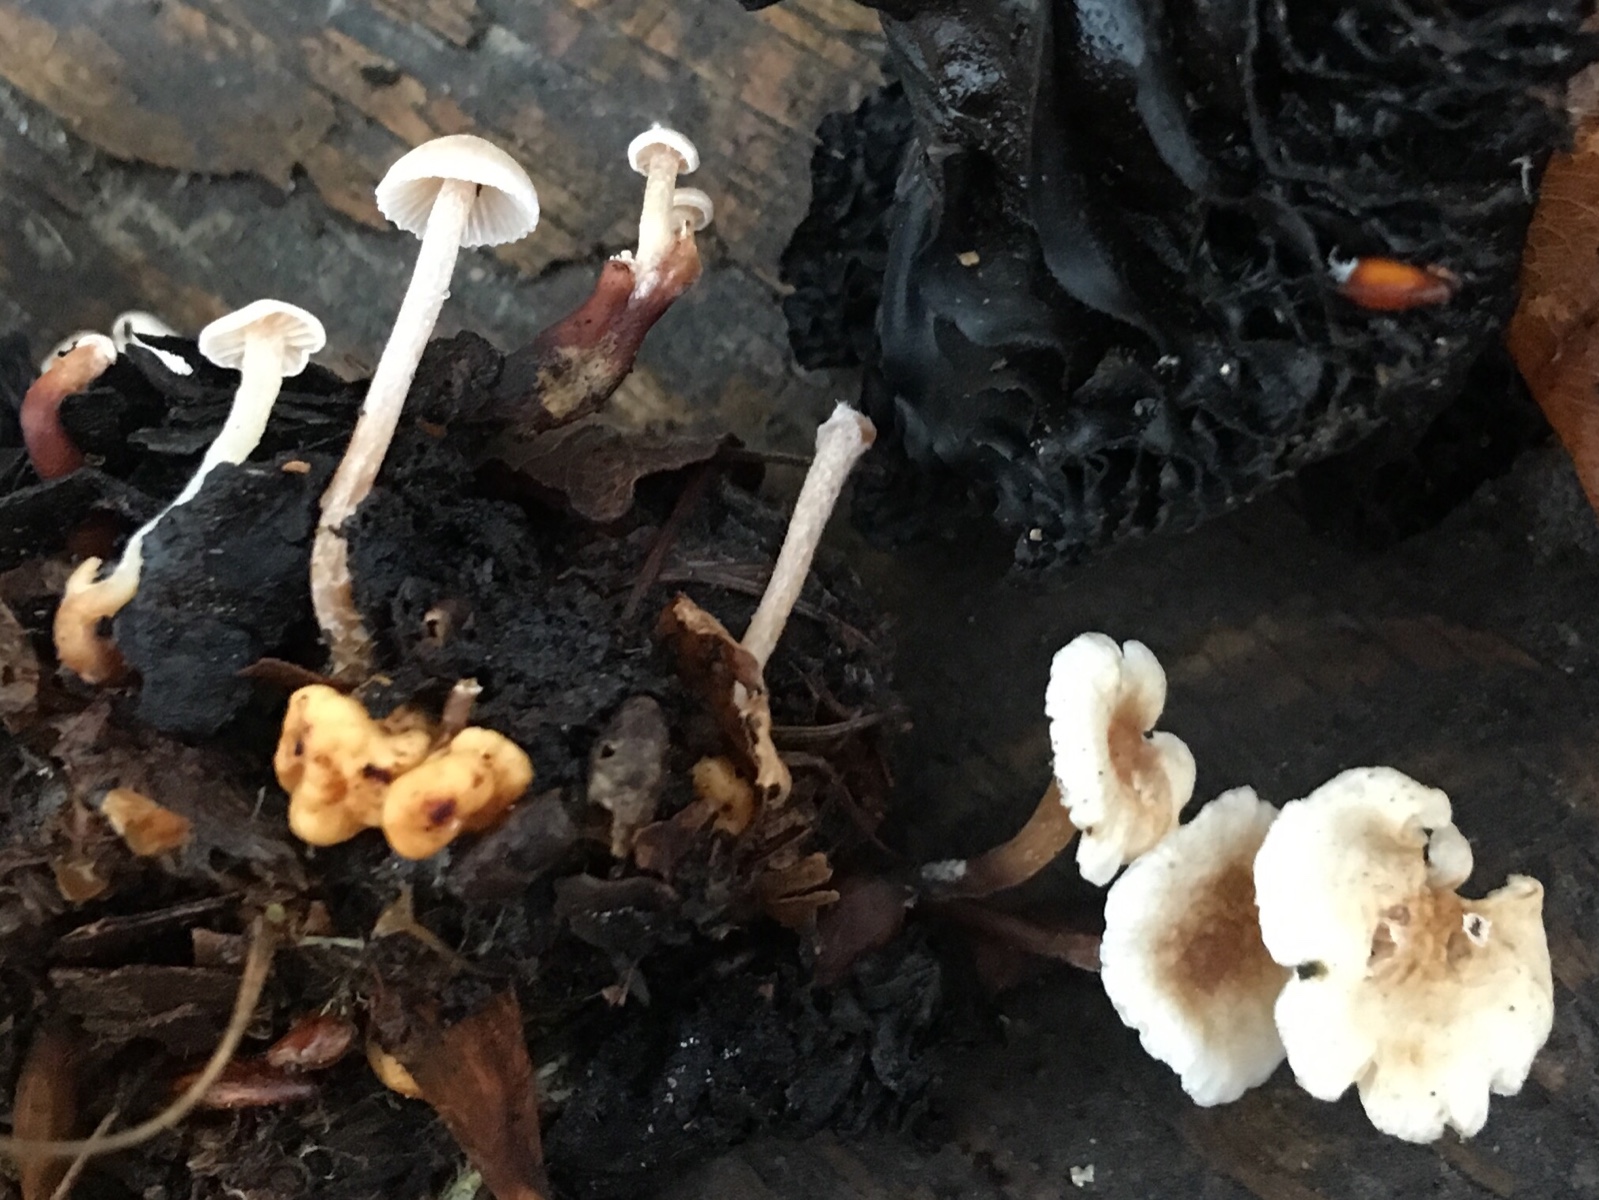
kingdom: Fungi
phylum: Basidiomycota
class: Agaricomycetes
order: Agaricales
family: Tricholomataceae
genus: Collybia
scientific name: Collybia cookei
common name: gulknoldet lighat
